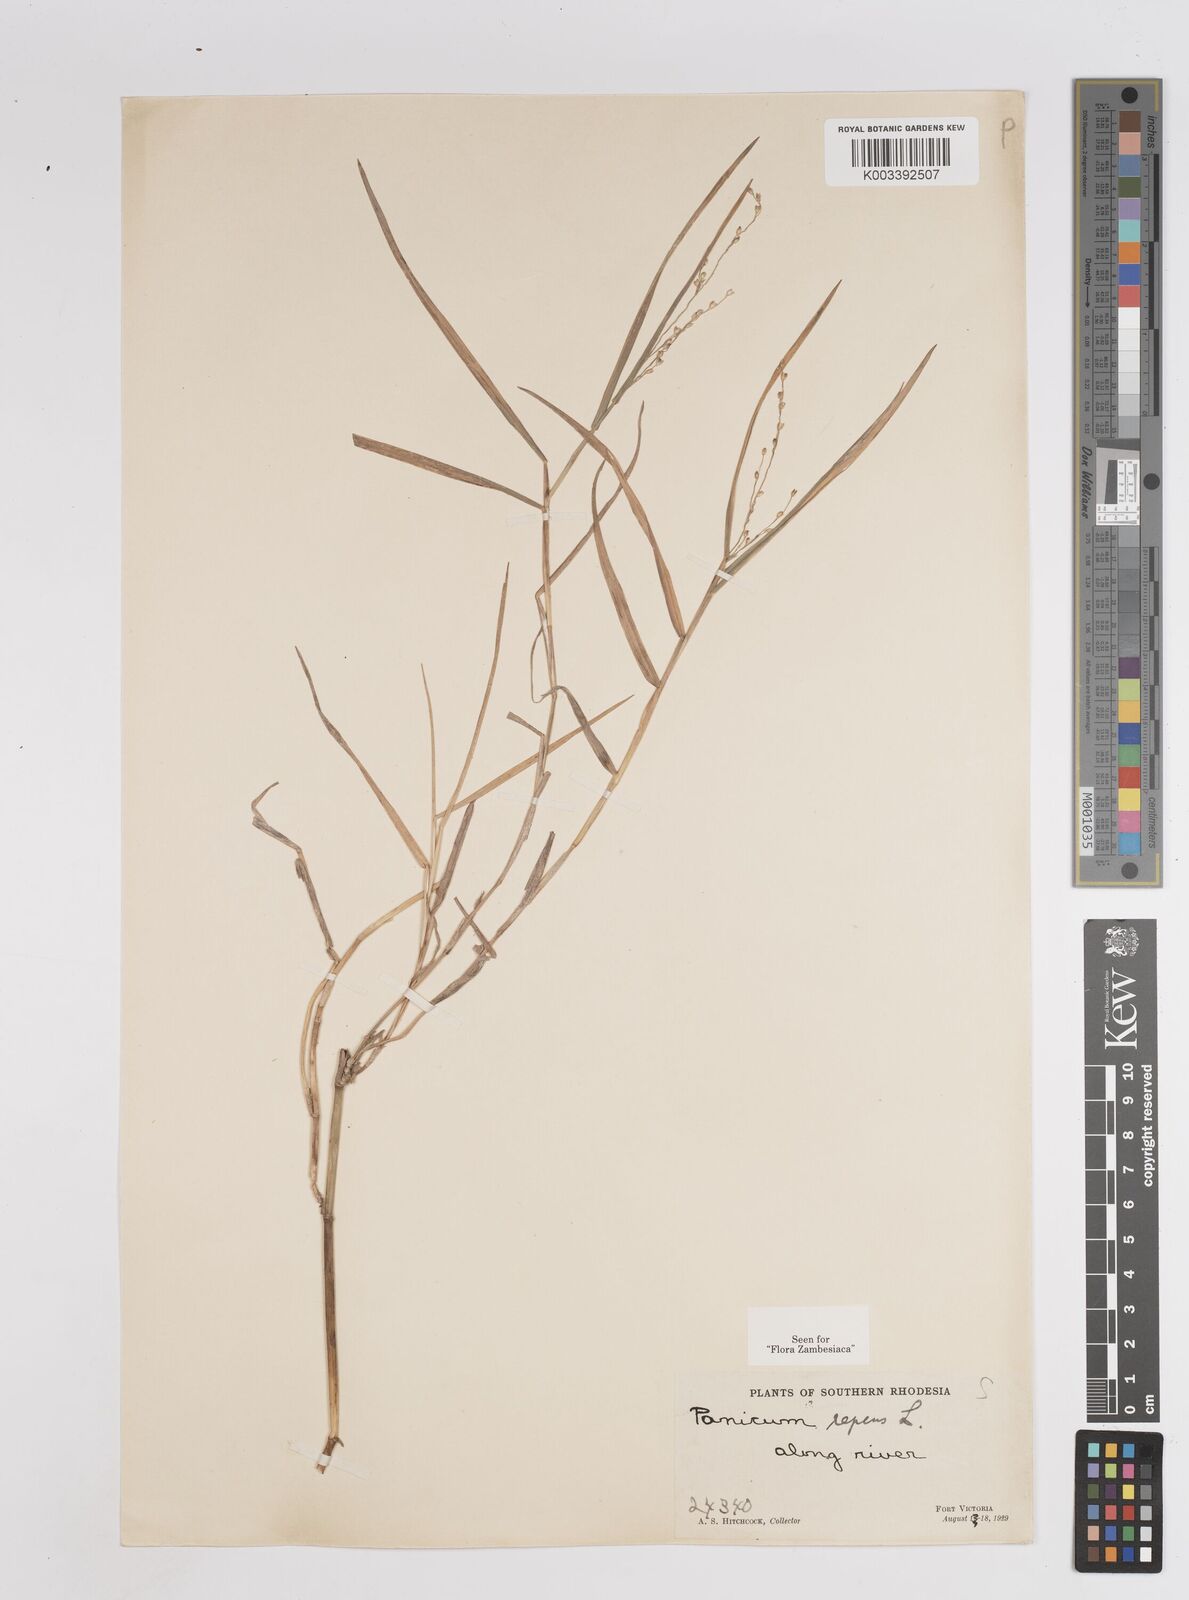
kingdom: Plantae
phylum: Tracheophyta
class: Liliopsida
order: Poales
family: Poaceae
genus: Panicum
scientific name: Panicum repens
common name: Torpedo grass
